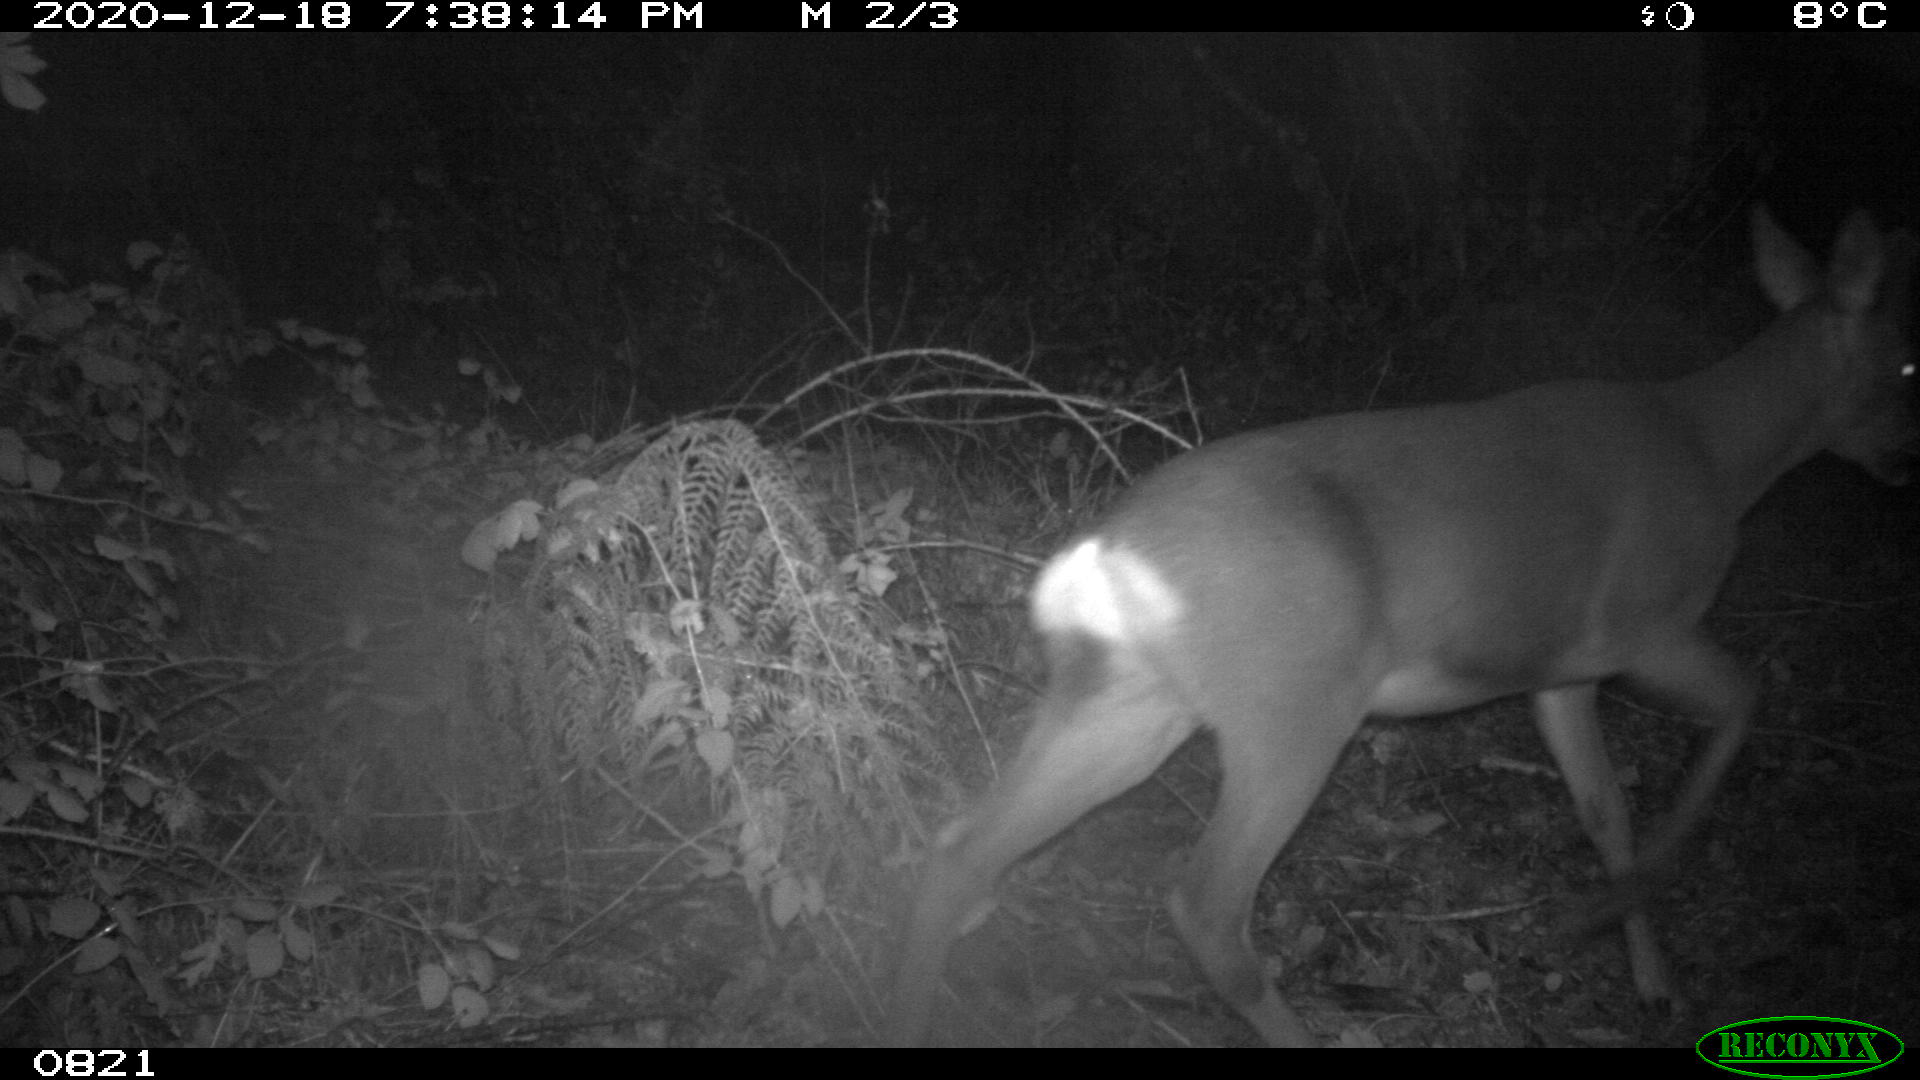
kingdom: Animalia
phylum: Chordata
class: Mammalia
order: Artiodactyla
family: Cervidae
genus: Capreolus
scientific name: Capreolus capreolus
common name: Western roe deer
